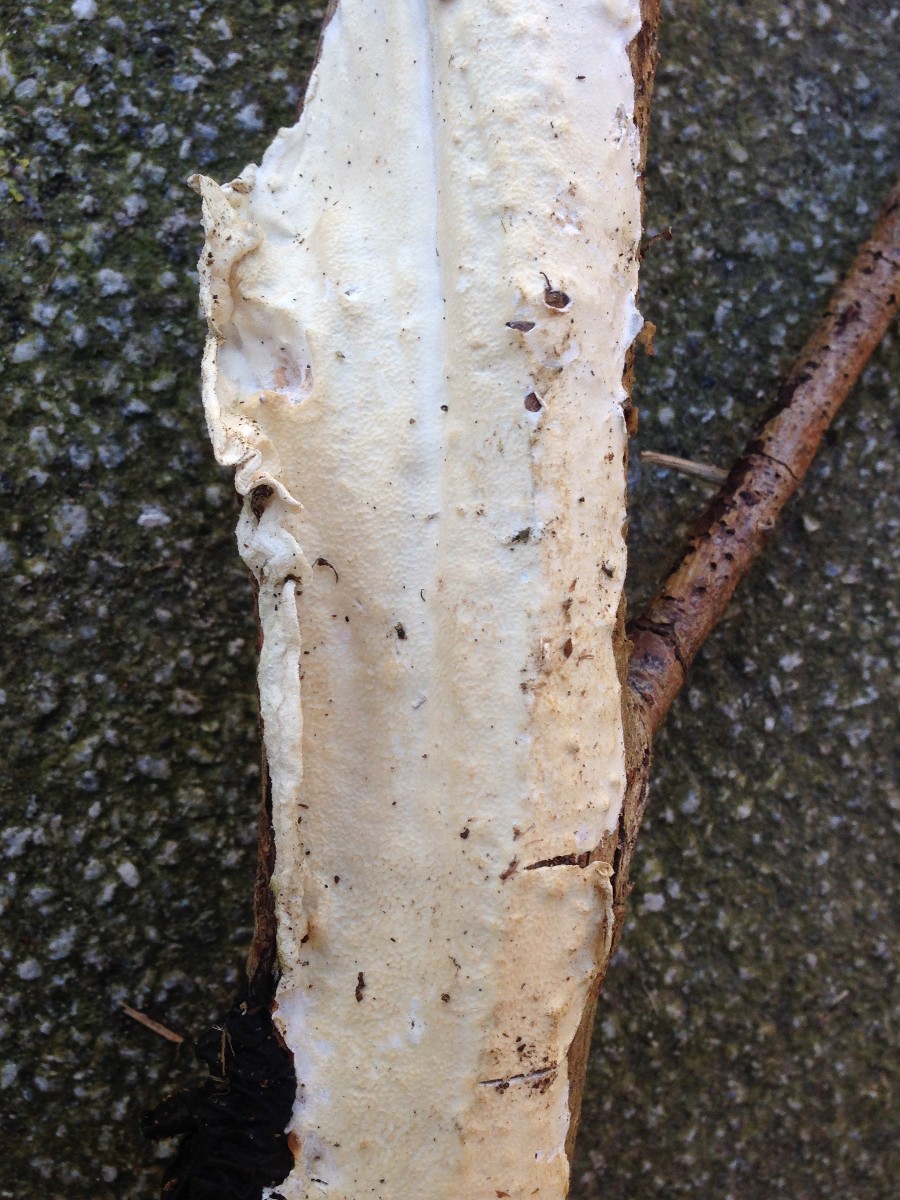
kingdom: Fungi
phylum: Basidiomycota
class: Agaricomycetes
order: Polyporales
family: Irpicaceae
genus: Byssomerulius
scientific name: Byssomerulius corium
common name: læder-åresvamp
